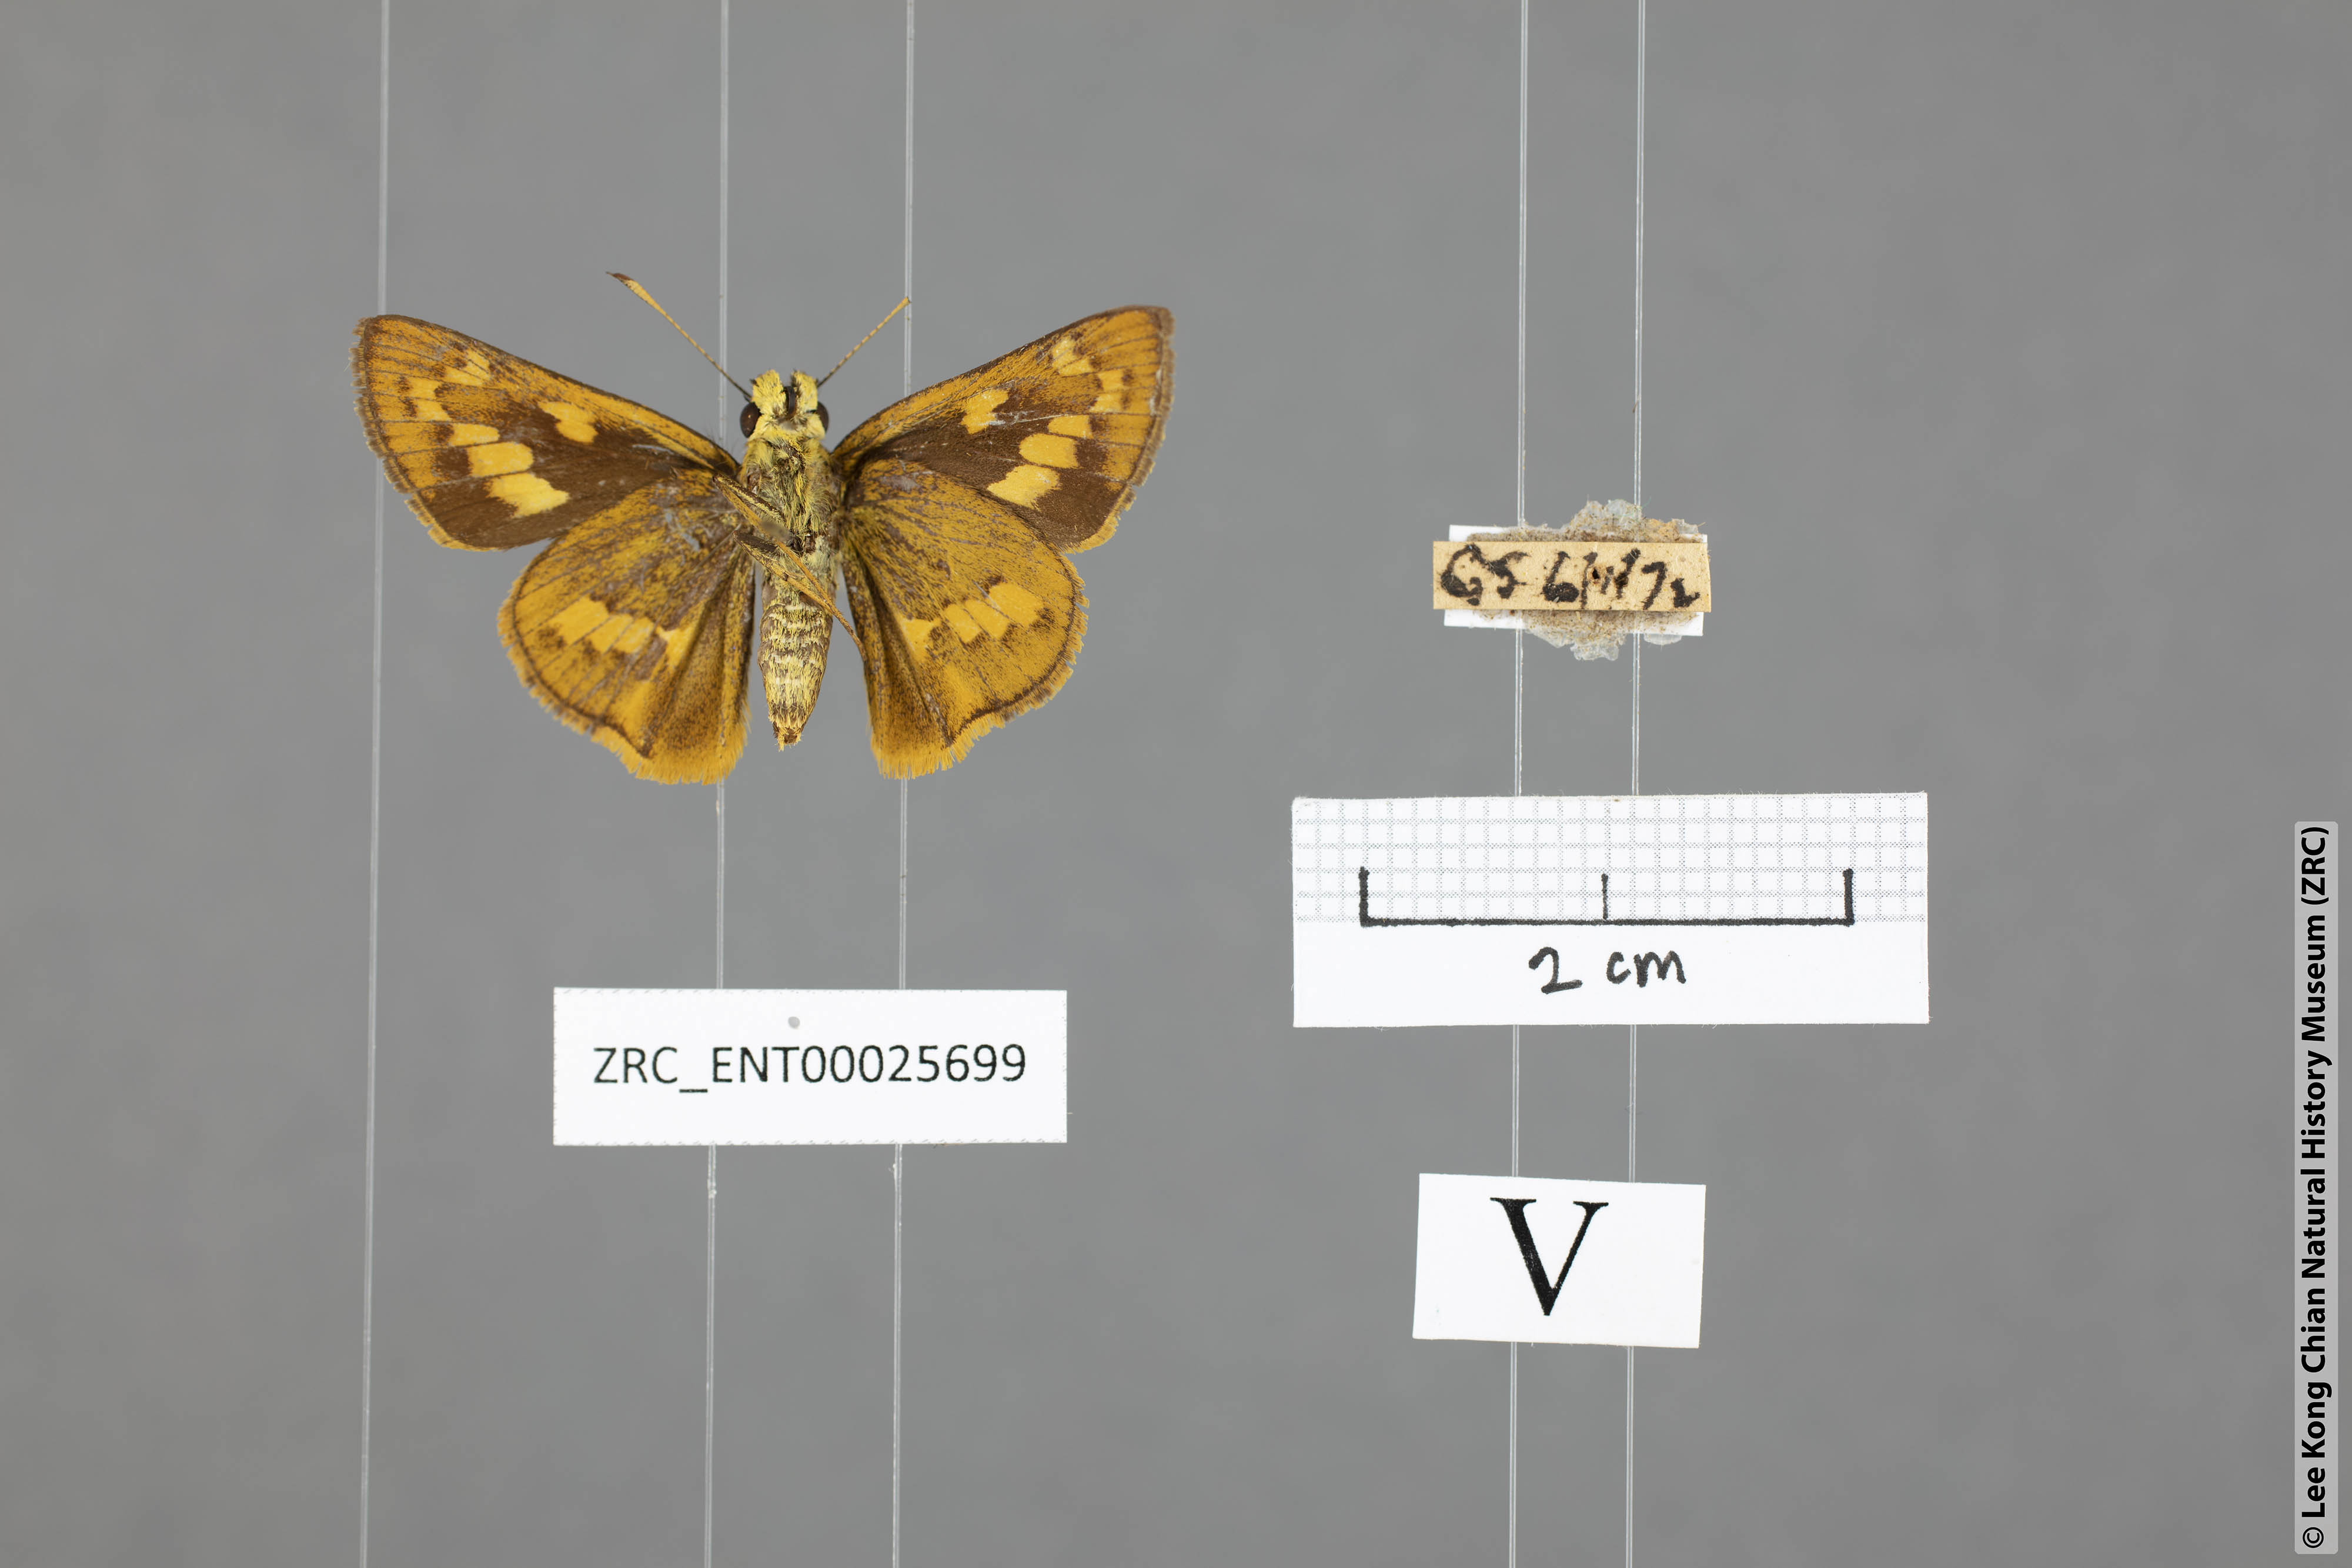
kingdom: Animalia
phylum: Arthropoda
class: Insecta
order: Lepidoptera
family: Hesperiidae
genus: Telicota
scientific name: Telicota ohara
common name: Dark palm dart
